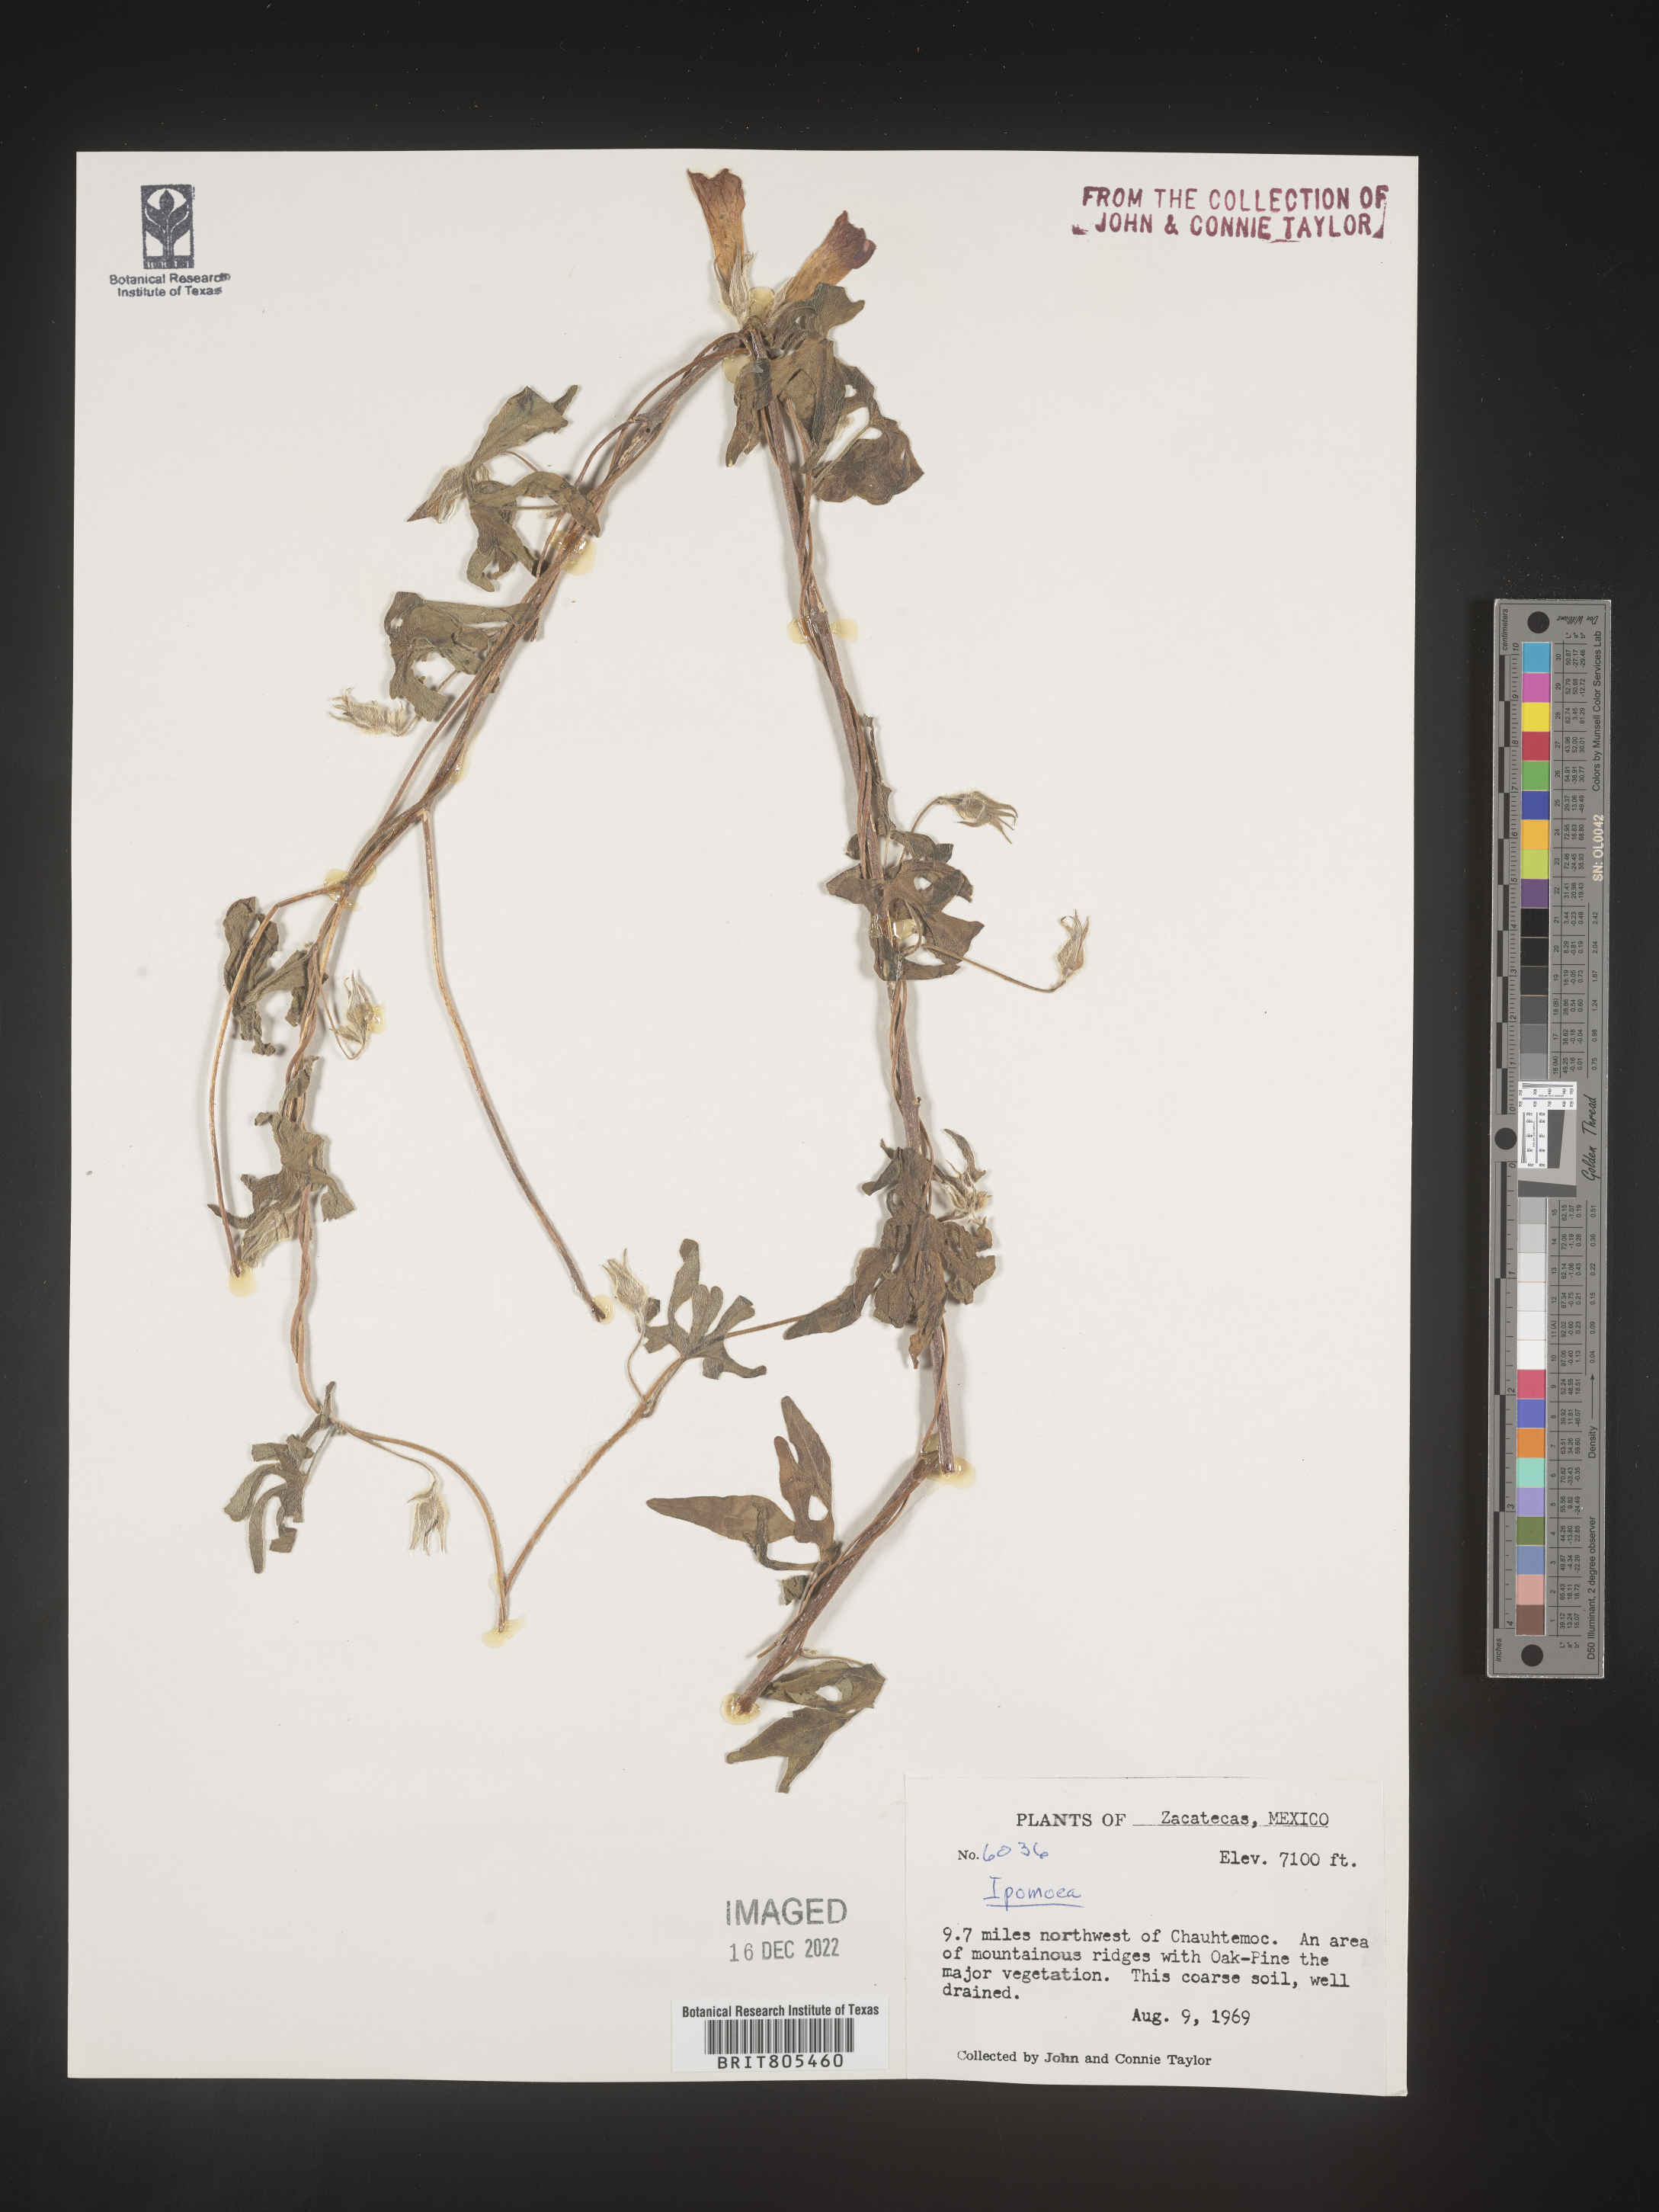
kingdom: Plantae
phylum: Tracheophyta
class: Magnoliopsida
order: Solanales
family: Convolvulaceae
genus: Ipomoea
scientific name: Ipomoea
